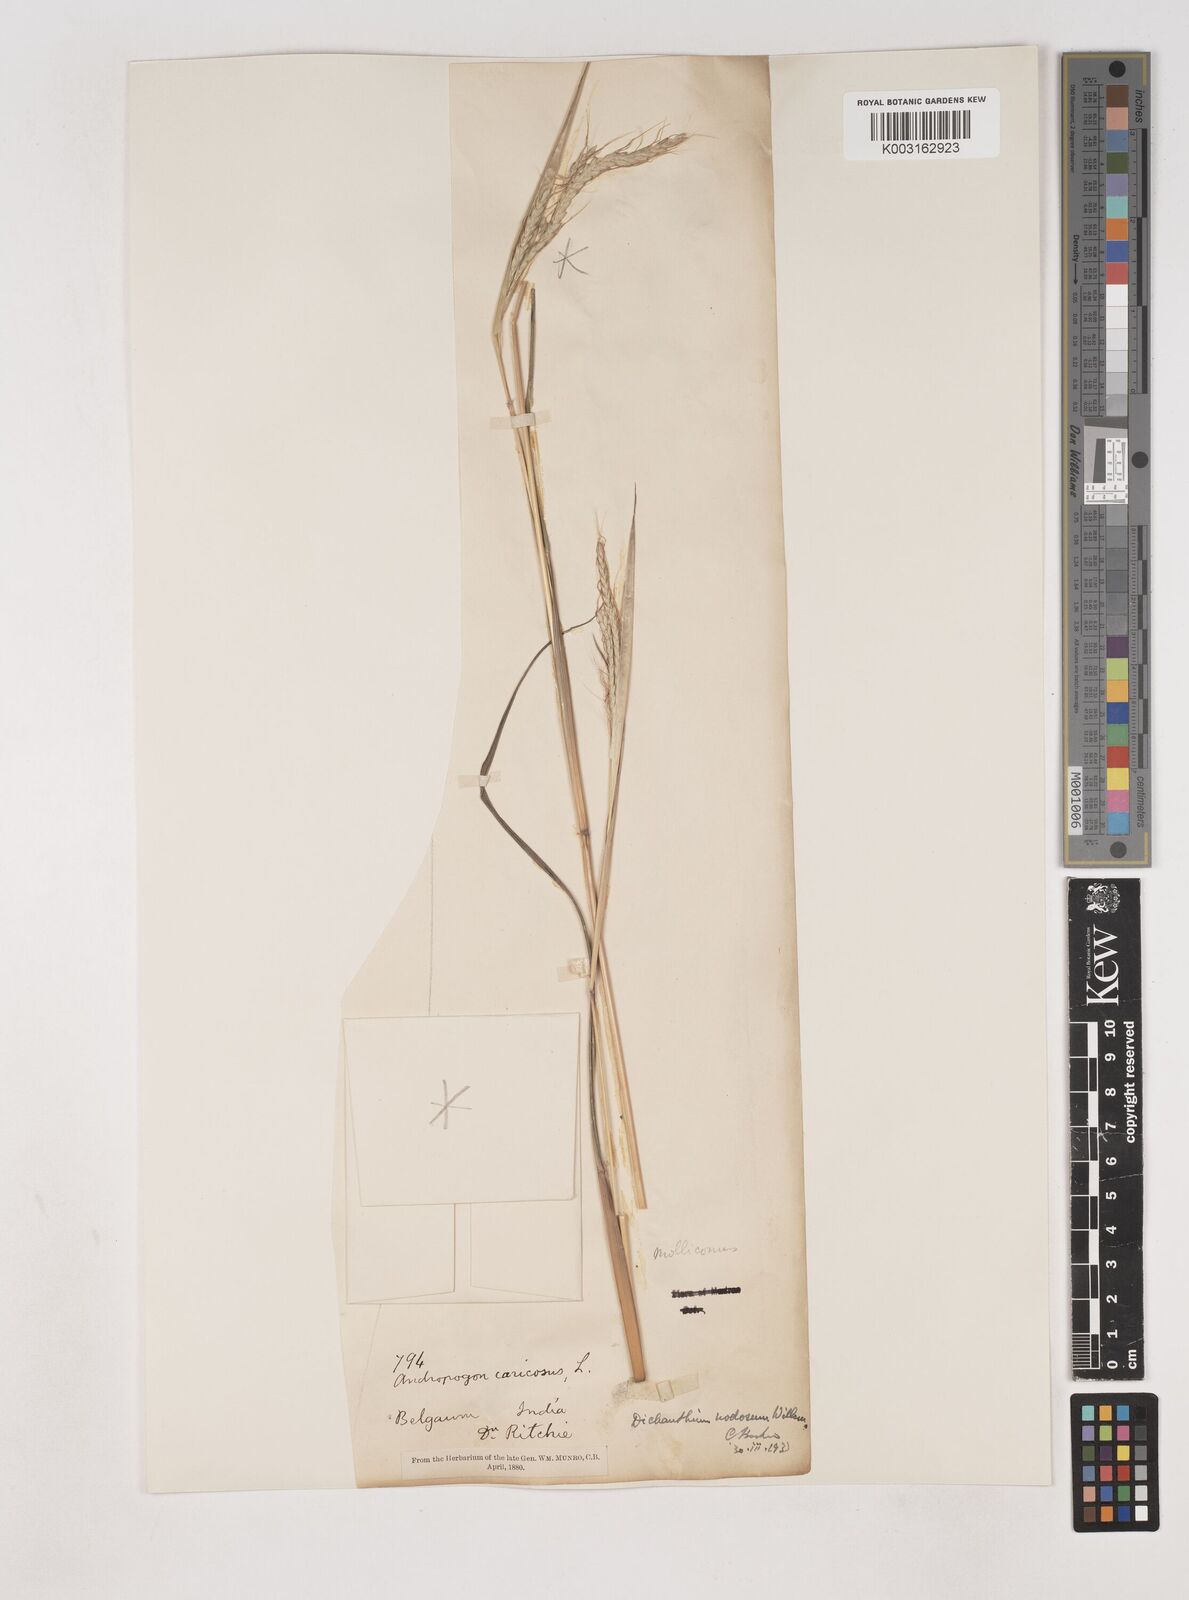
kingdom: Plantae
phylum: Tracheophyta
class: Liliopsida
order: Poales
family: Poaceae
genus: Dichanthium
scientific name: Dichanthium aristatum
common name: Angleton bluestem
